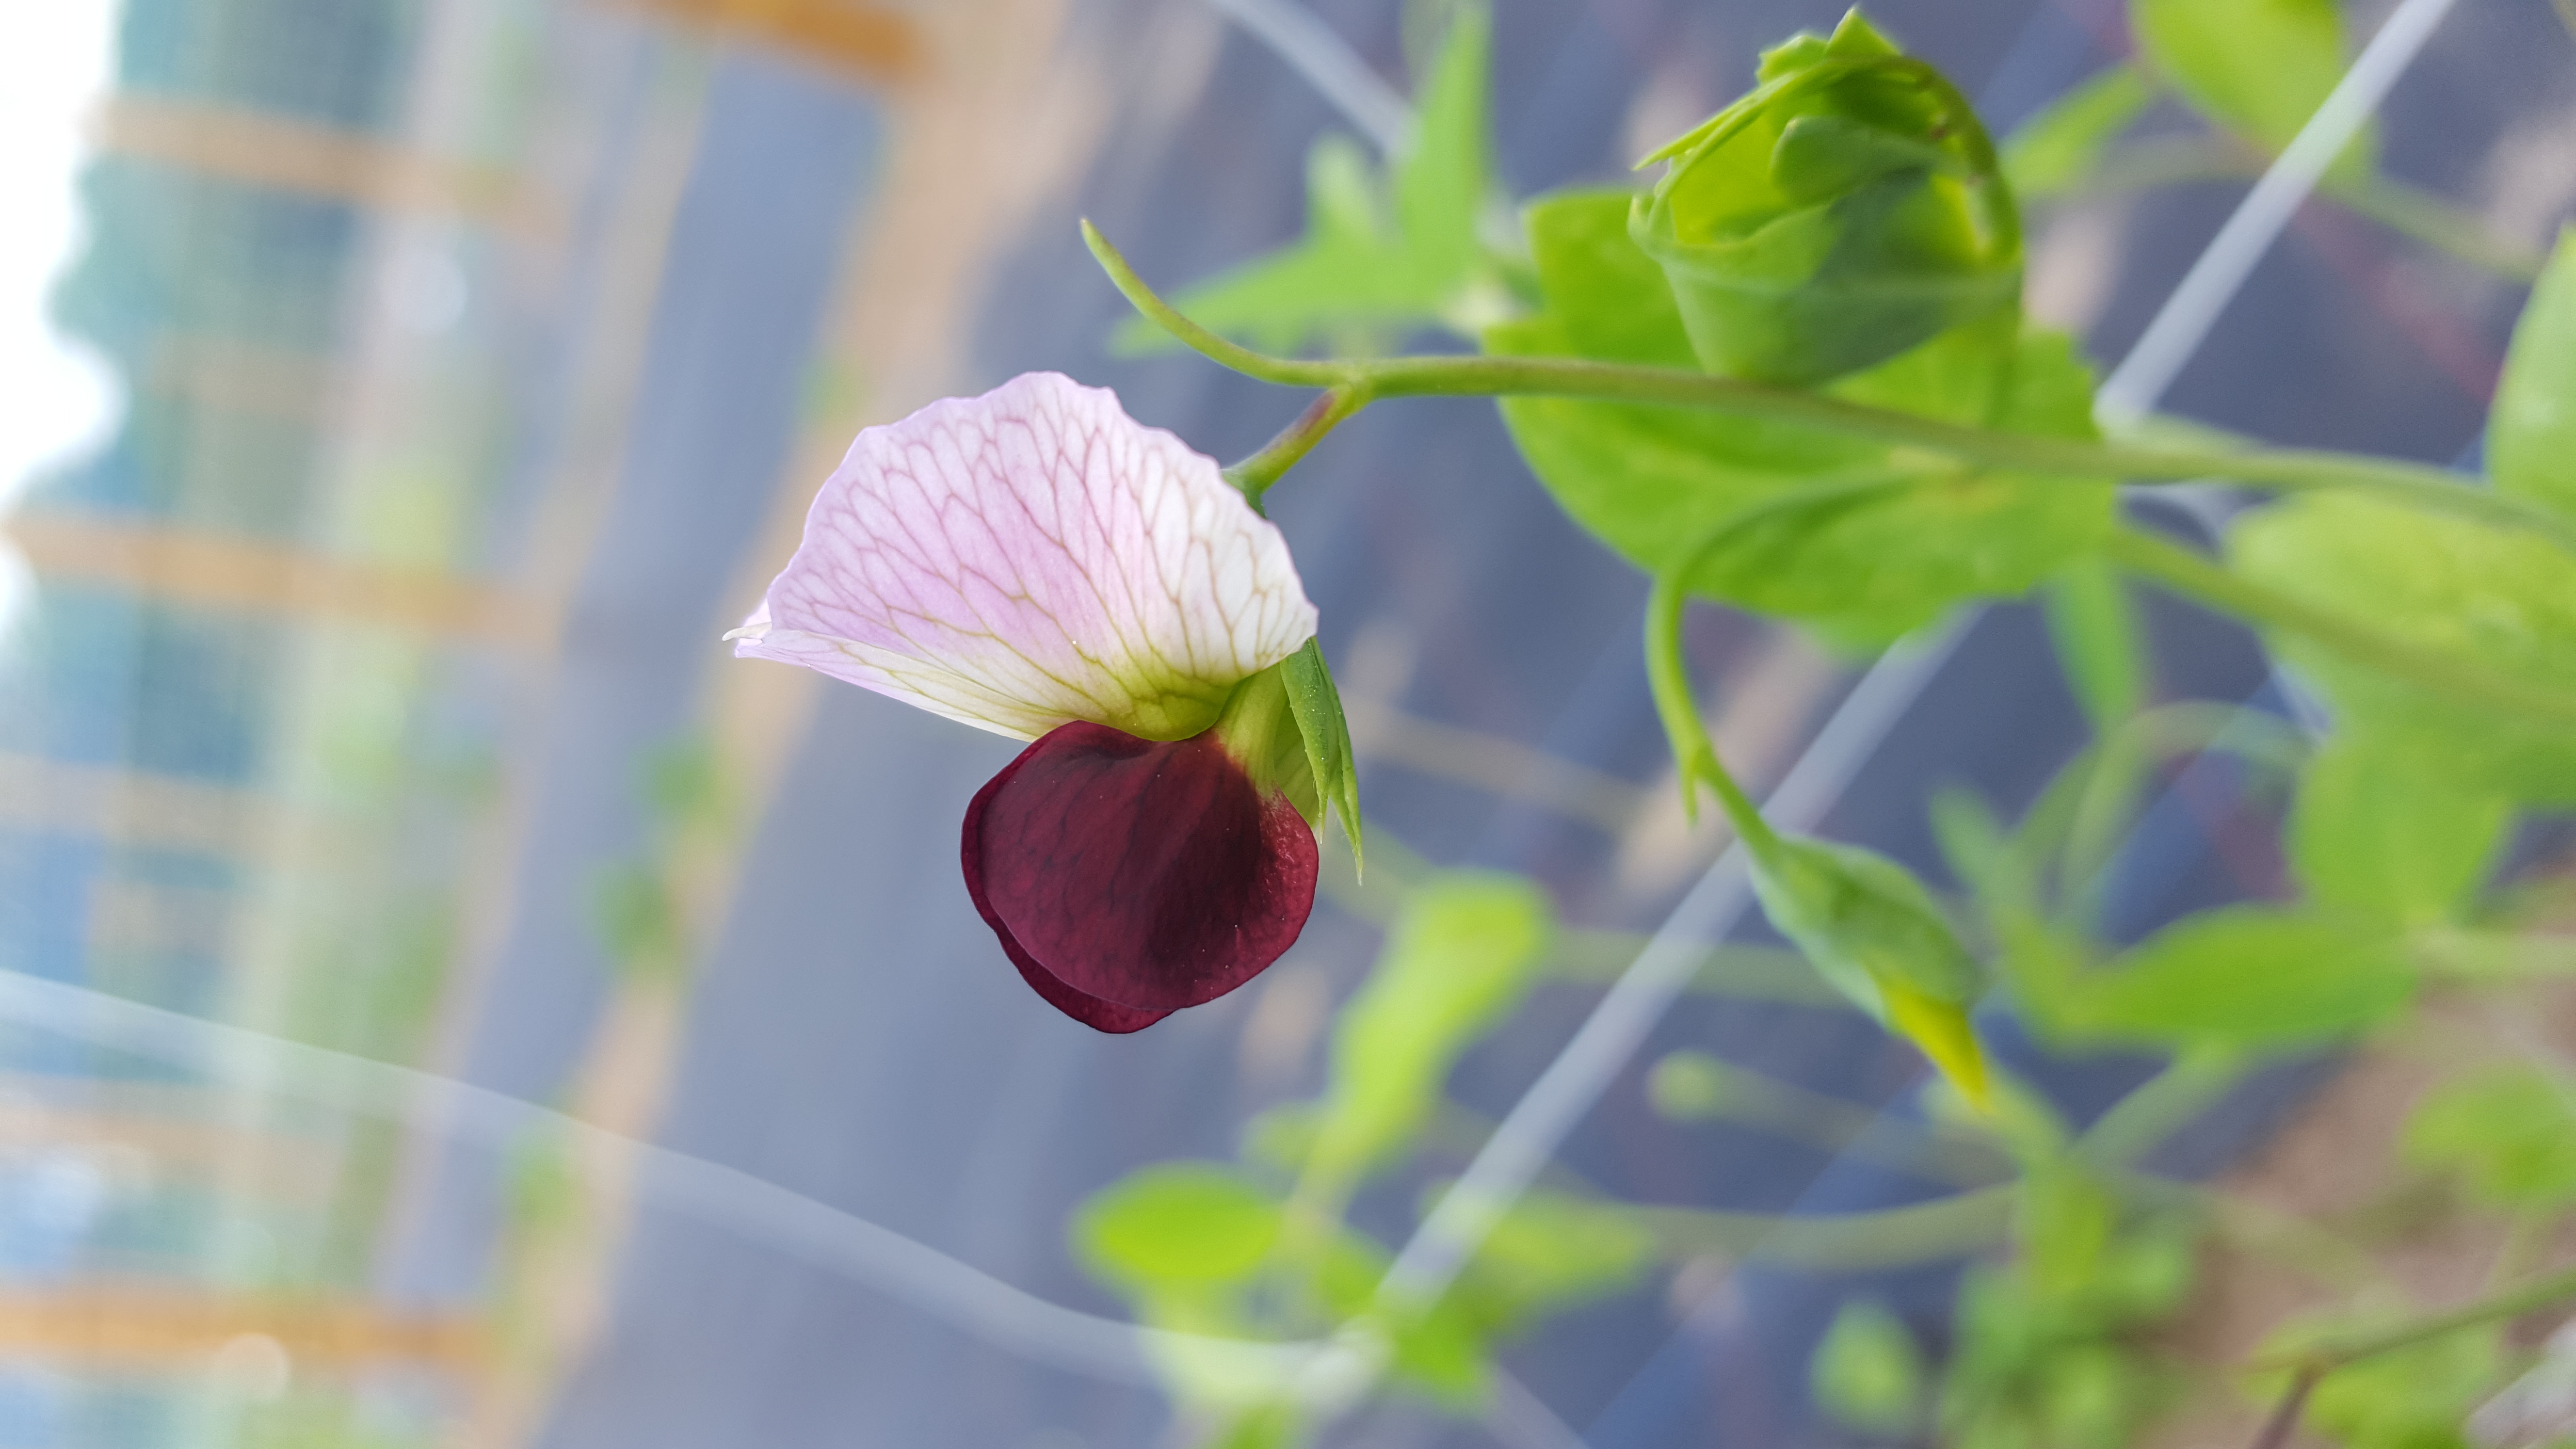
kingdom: Plantae
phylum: Tracheophyta
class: Magnoliopsida
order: Fabales
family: Fabaceae
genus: Lathyrus
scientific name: Lathyrus oleraceus
